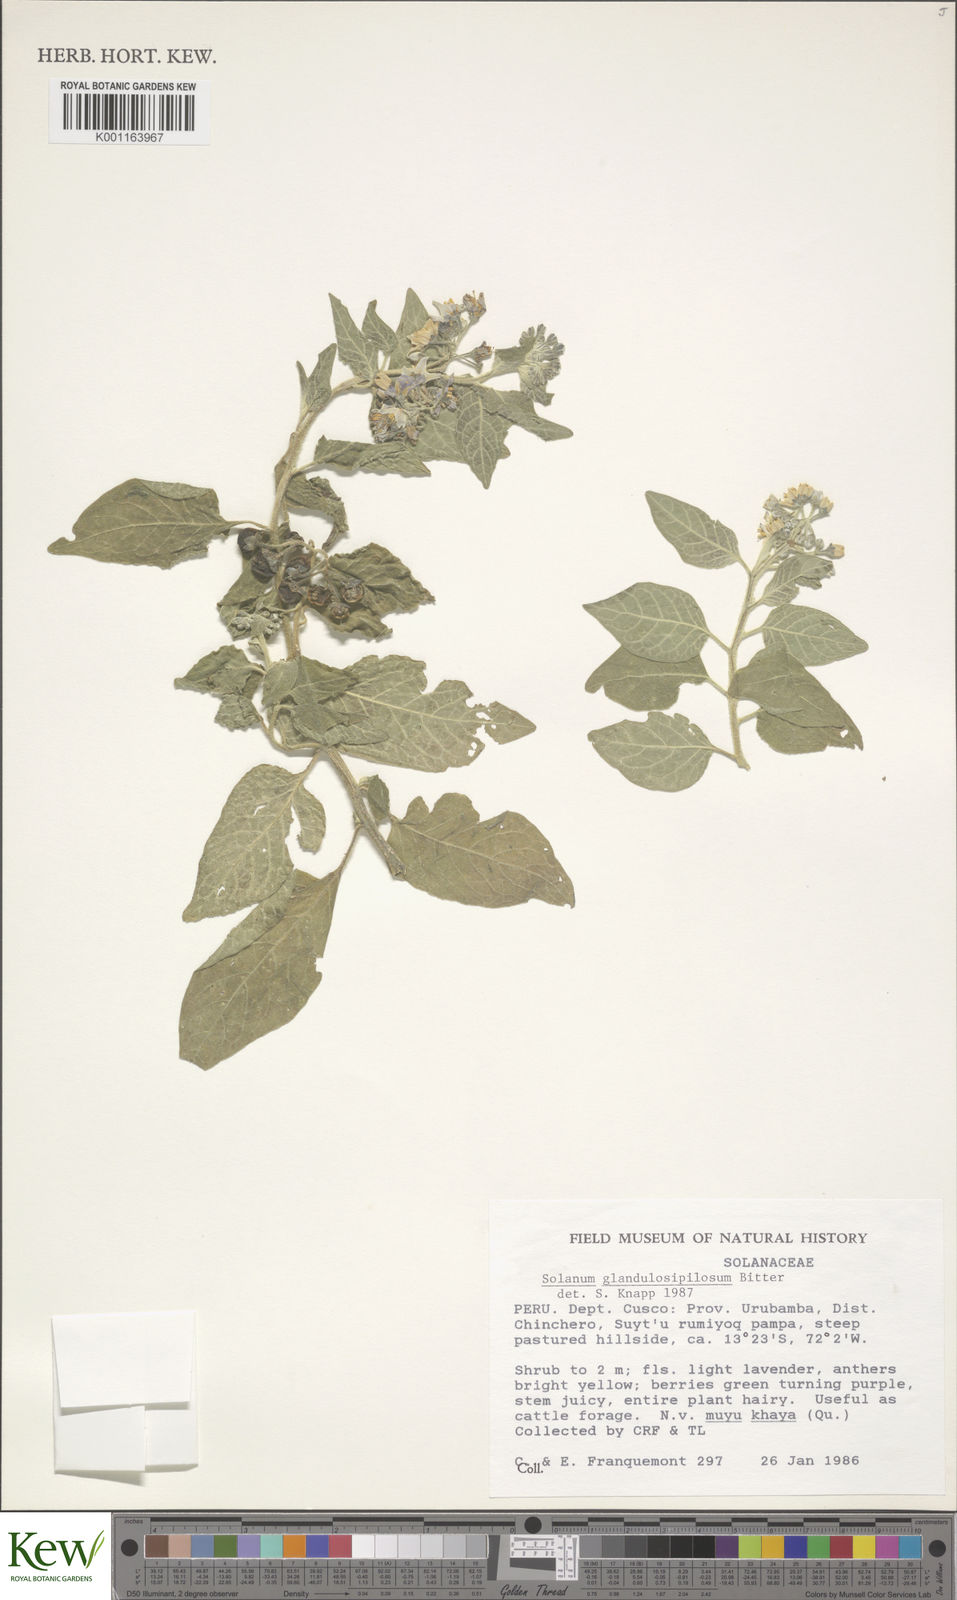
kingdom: Plantae
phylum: Tracheophyta
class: Magnoliopsida
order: Solanales
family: Solanaceae
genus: Solanum
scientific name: Solanum glandulosipilosum
